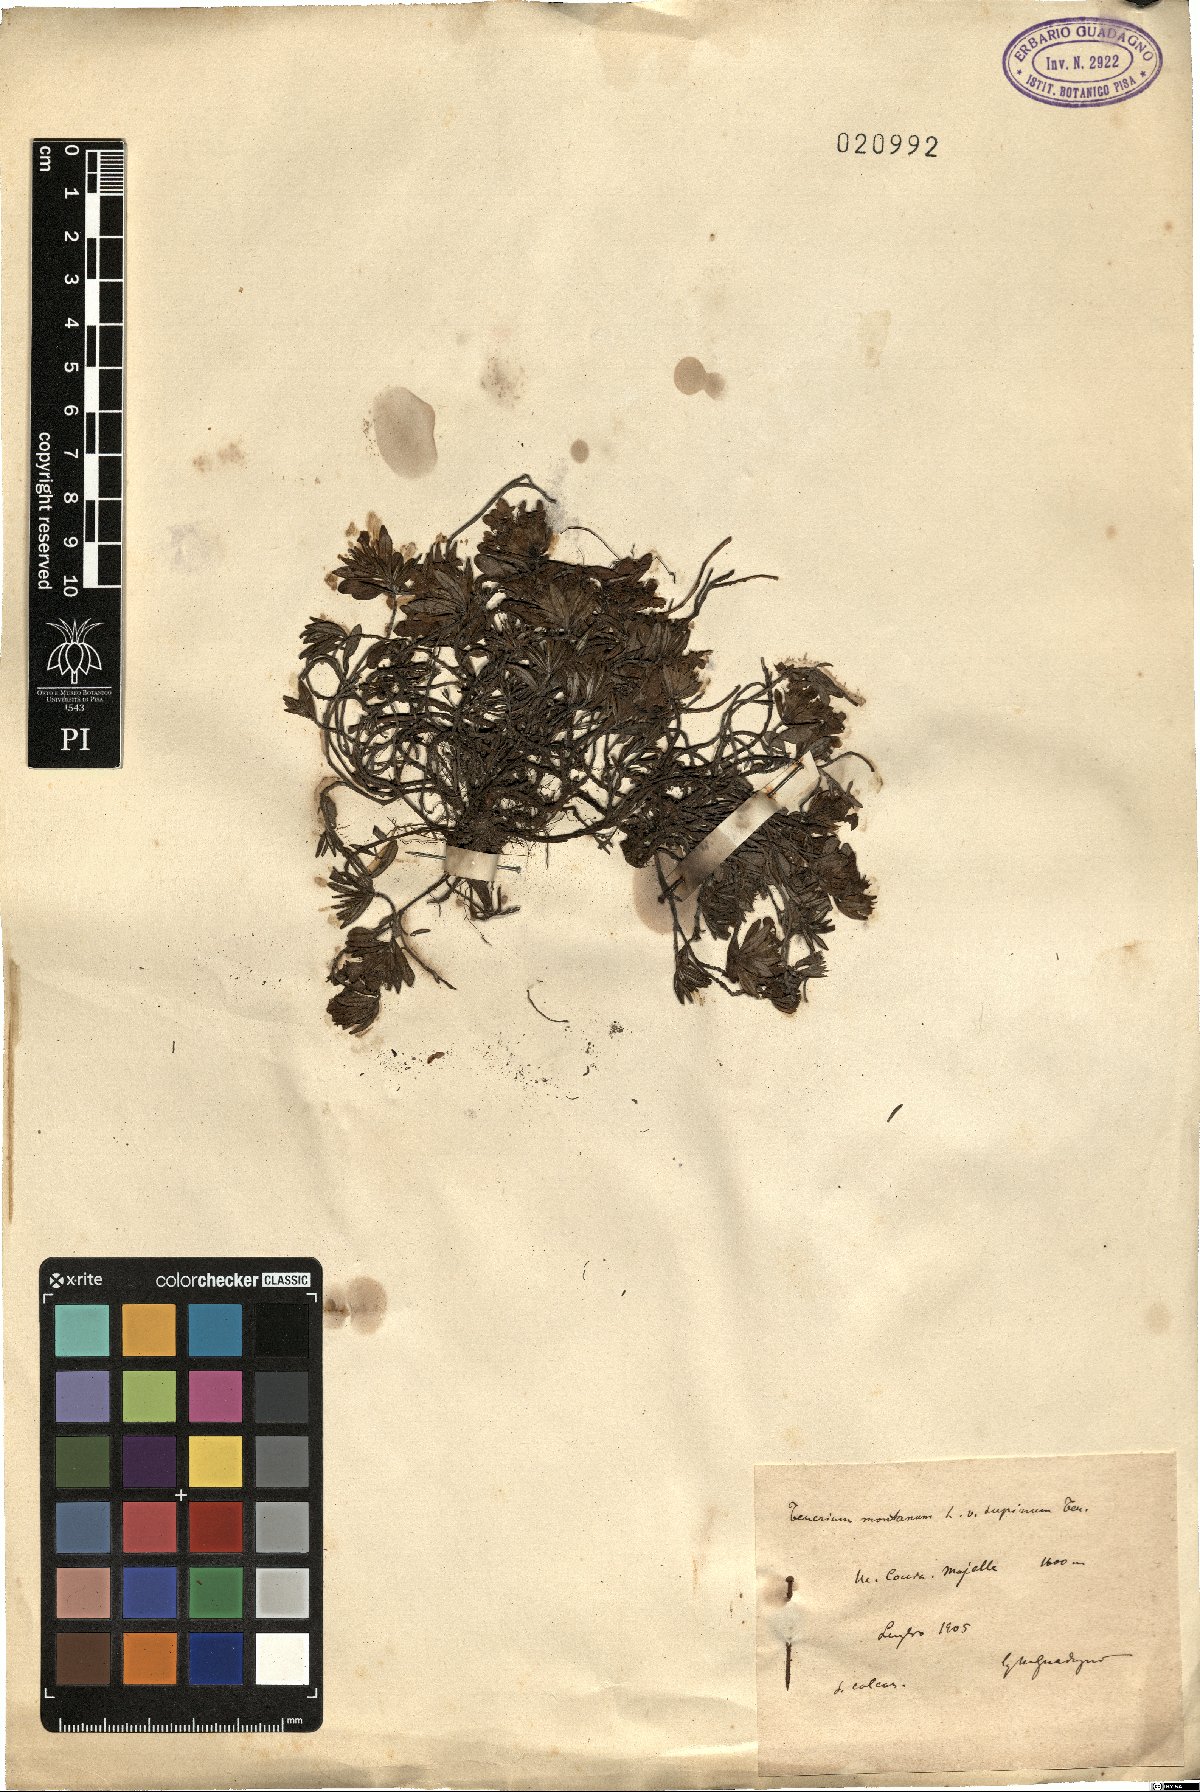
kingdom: Plantae
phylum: Tracheophyta
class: Magnoliopsida
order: Lamiales
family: Lamiaceae
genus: Teucrium
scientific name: Teucrium montanum
